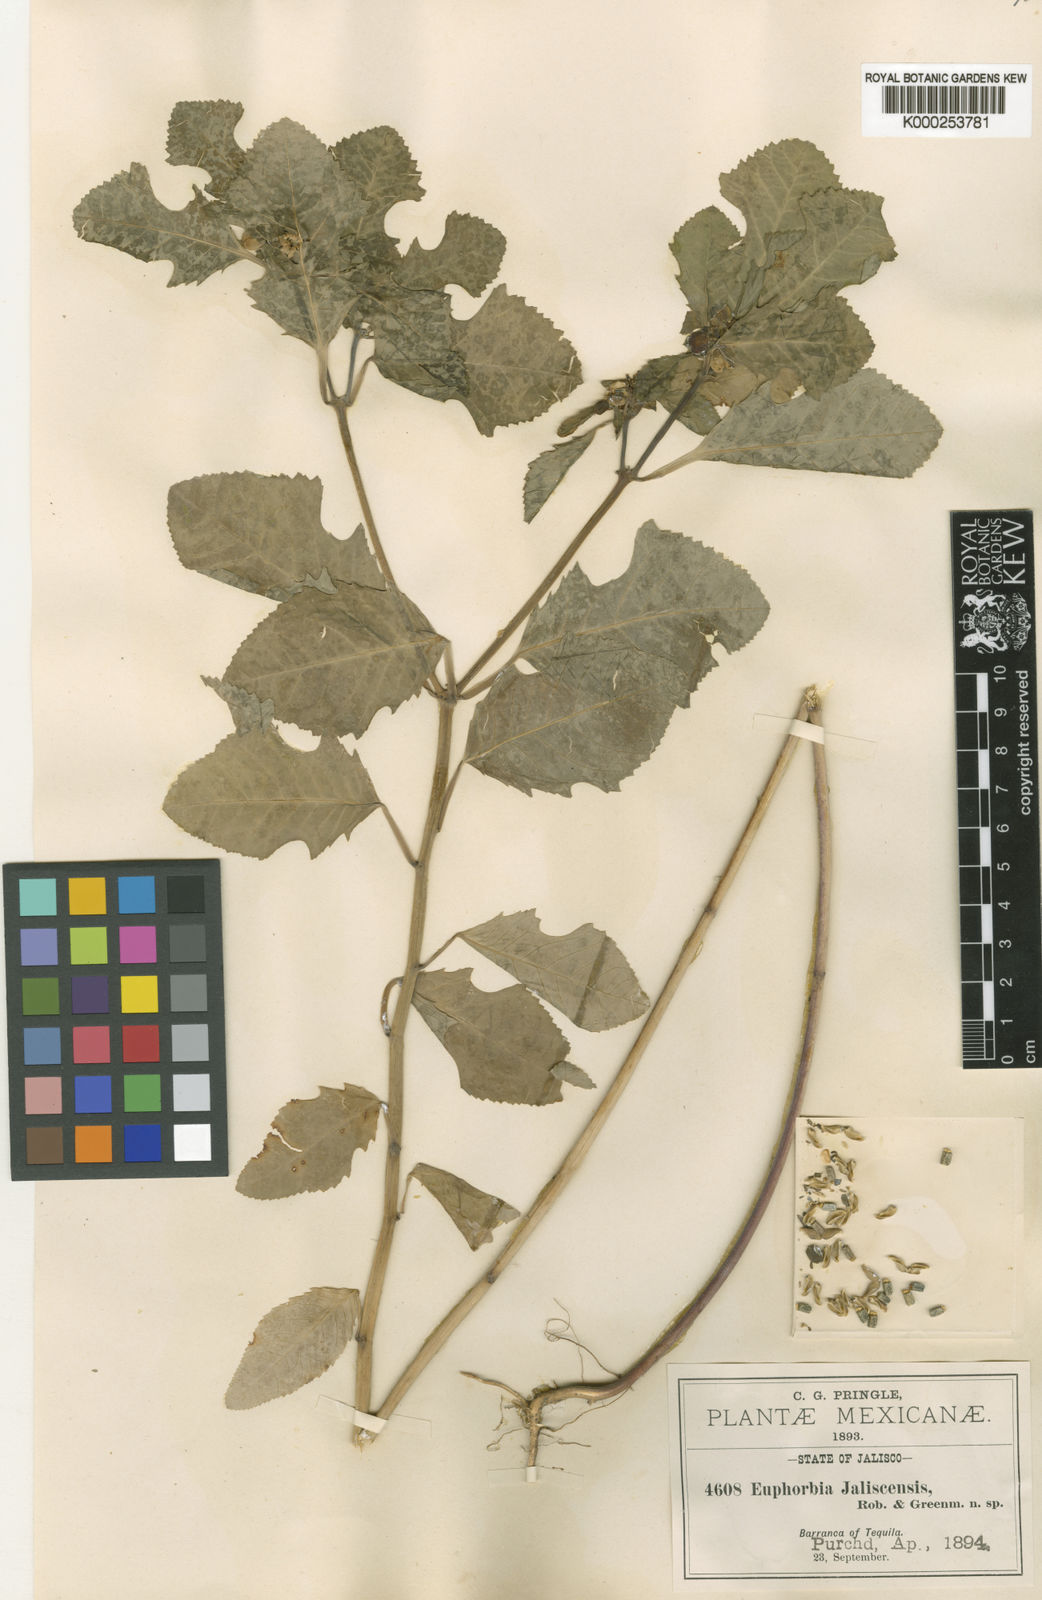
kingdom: Plantae
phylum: Tracheophyta
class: Magnoliopsida
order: Malpighiales
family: Euphorbiaceae
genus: Euphorbia
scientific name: Euphorbia jaliscensis
